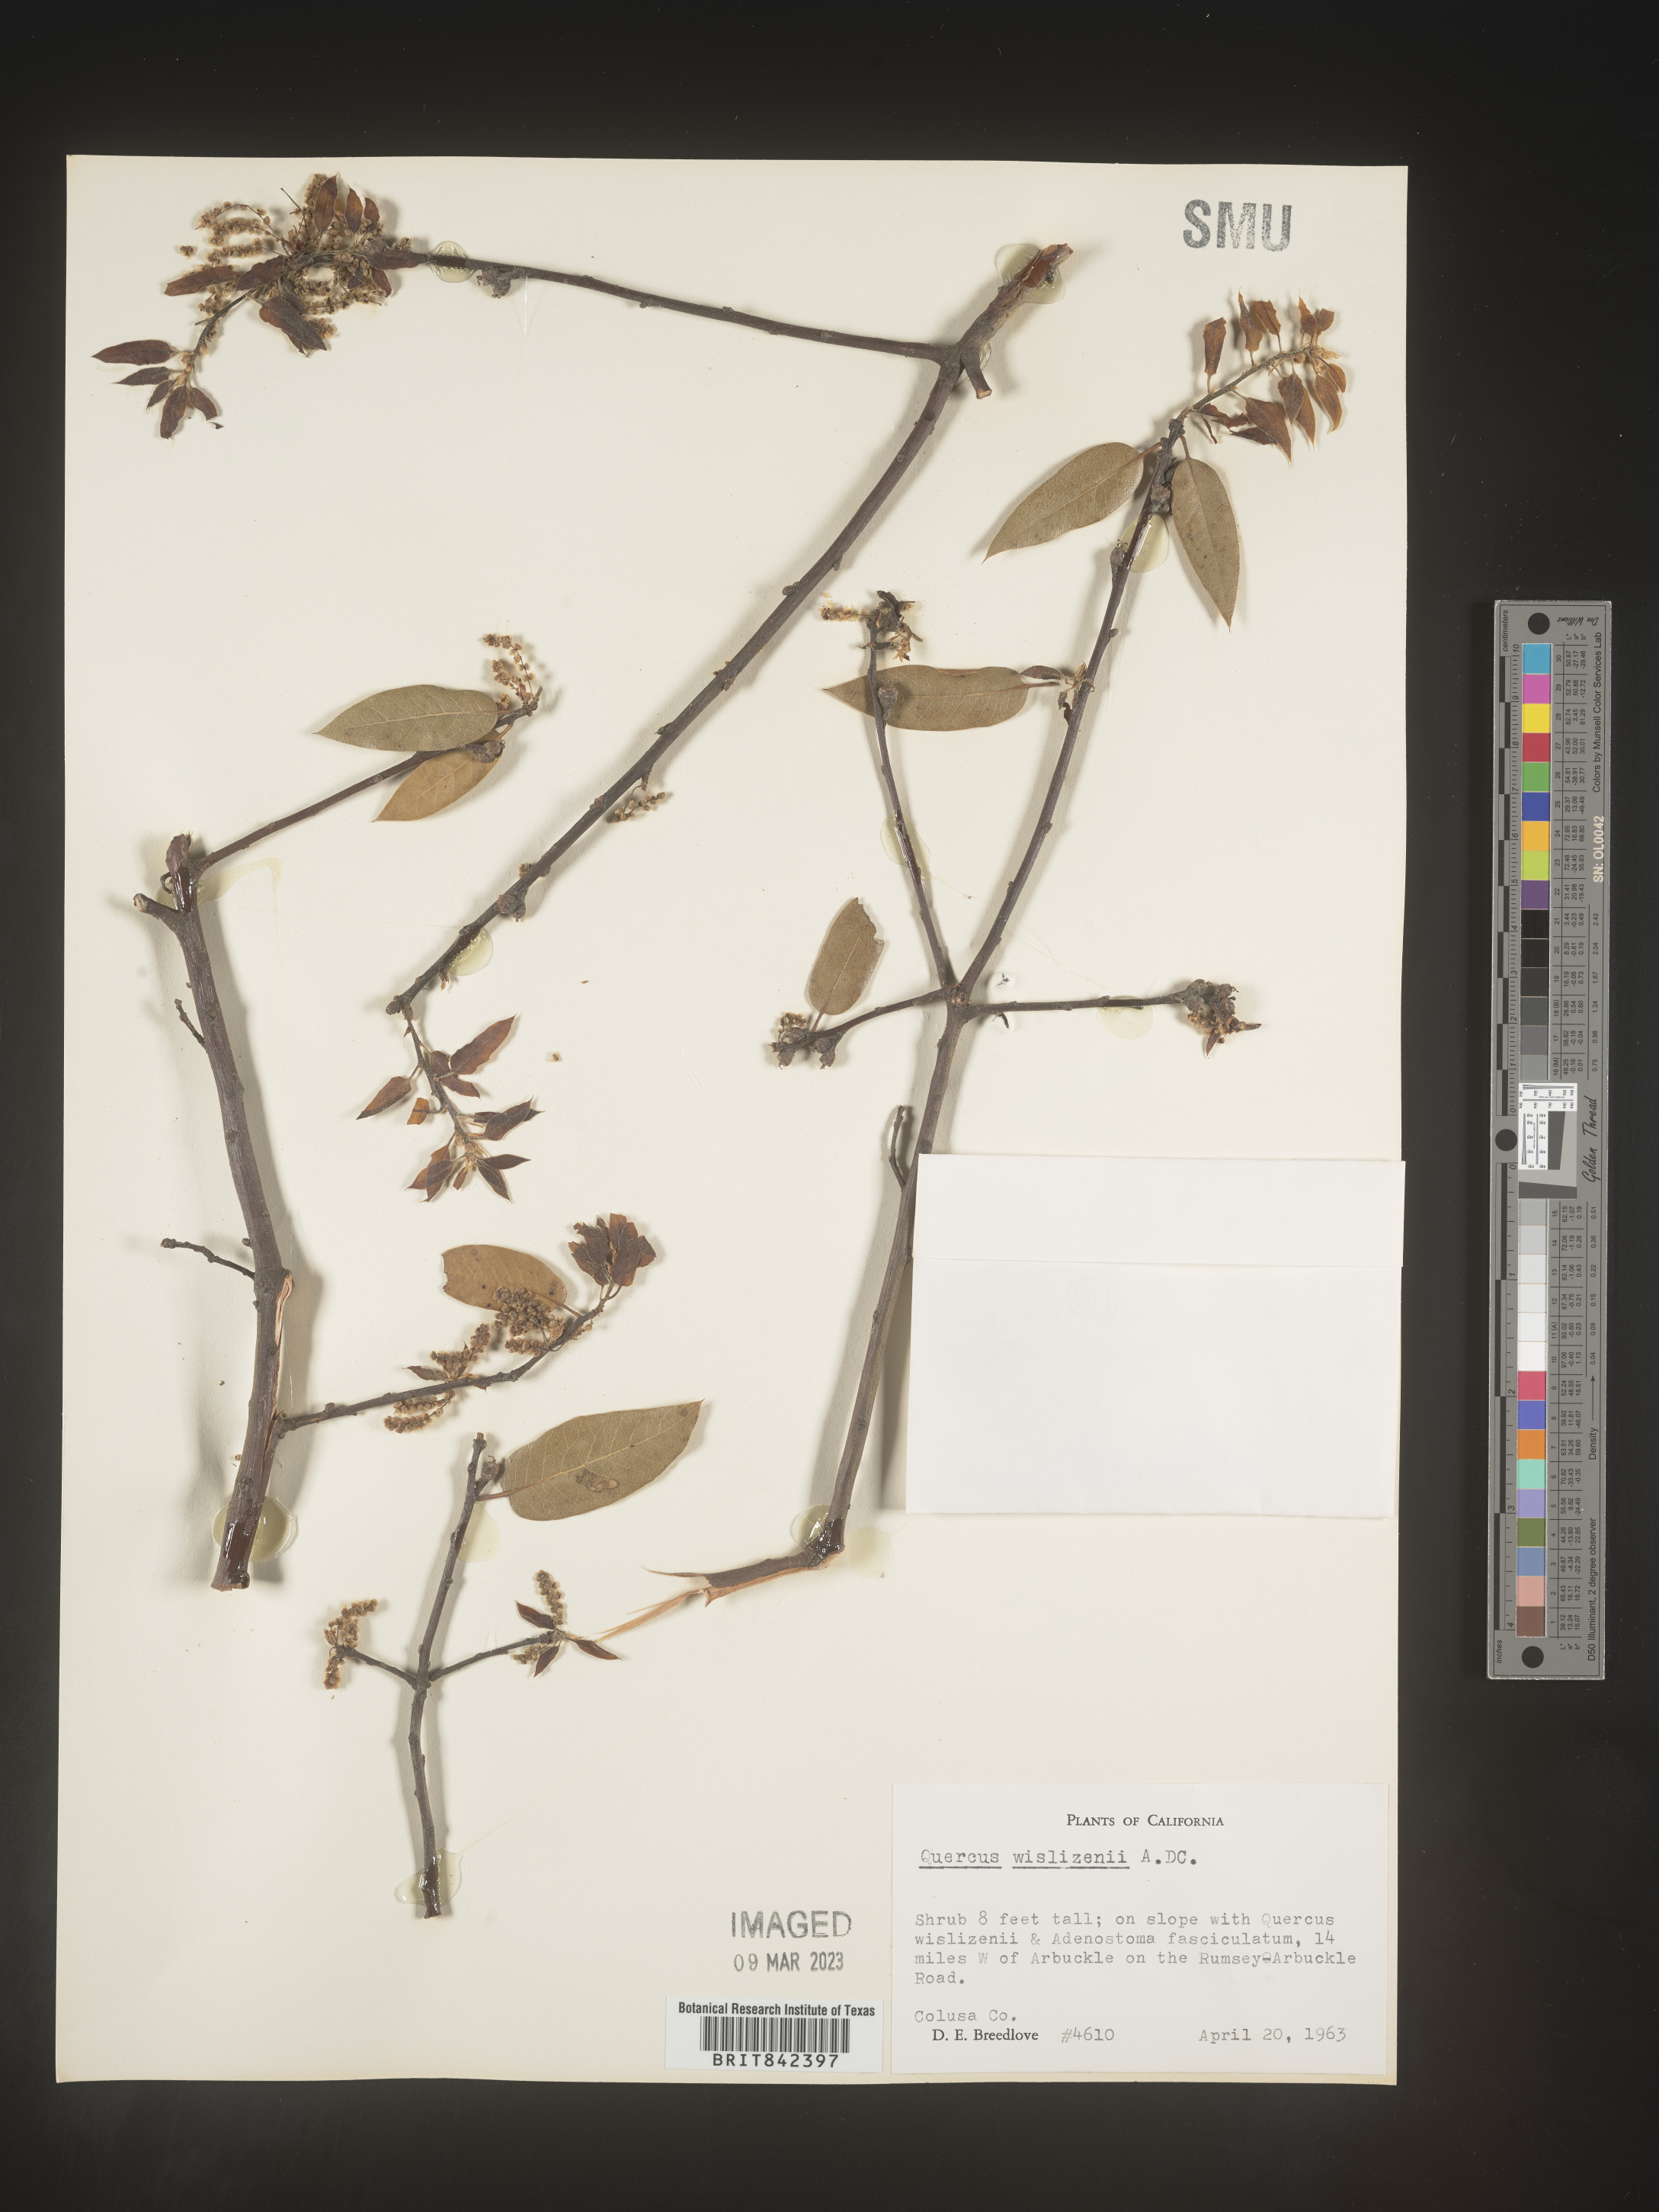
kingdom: Plantae
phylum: Tracheophyta
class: Magnoliopsida
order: Fagales
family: Fagaceae
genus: Quercus
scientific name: Quercus wislizeni
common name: Interior live oak
